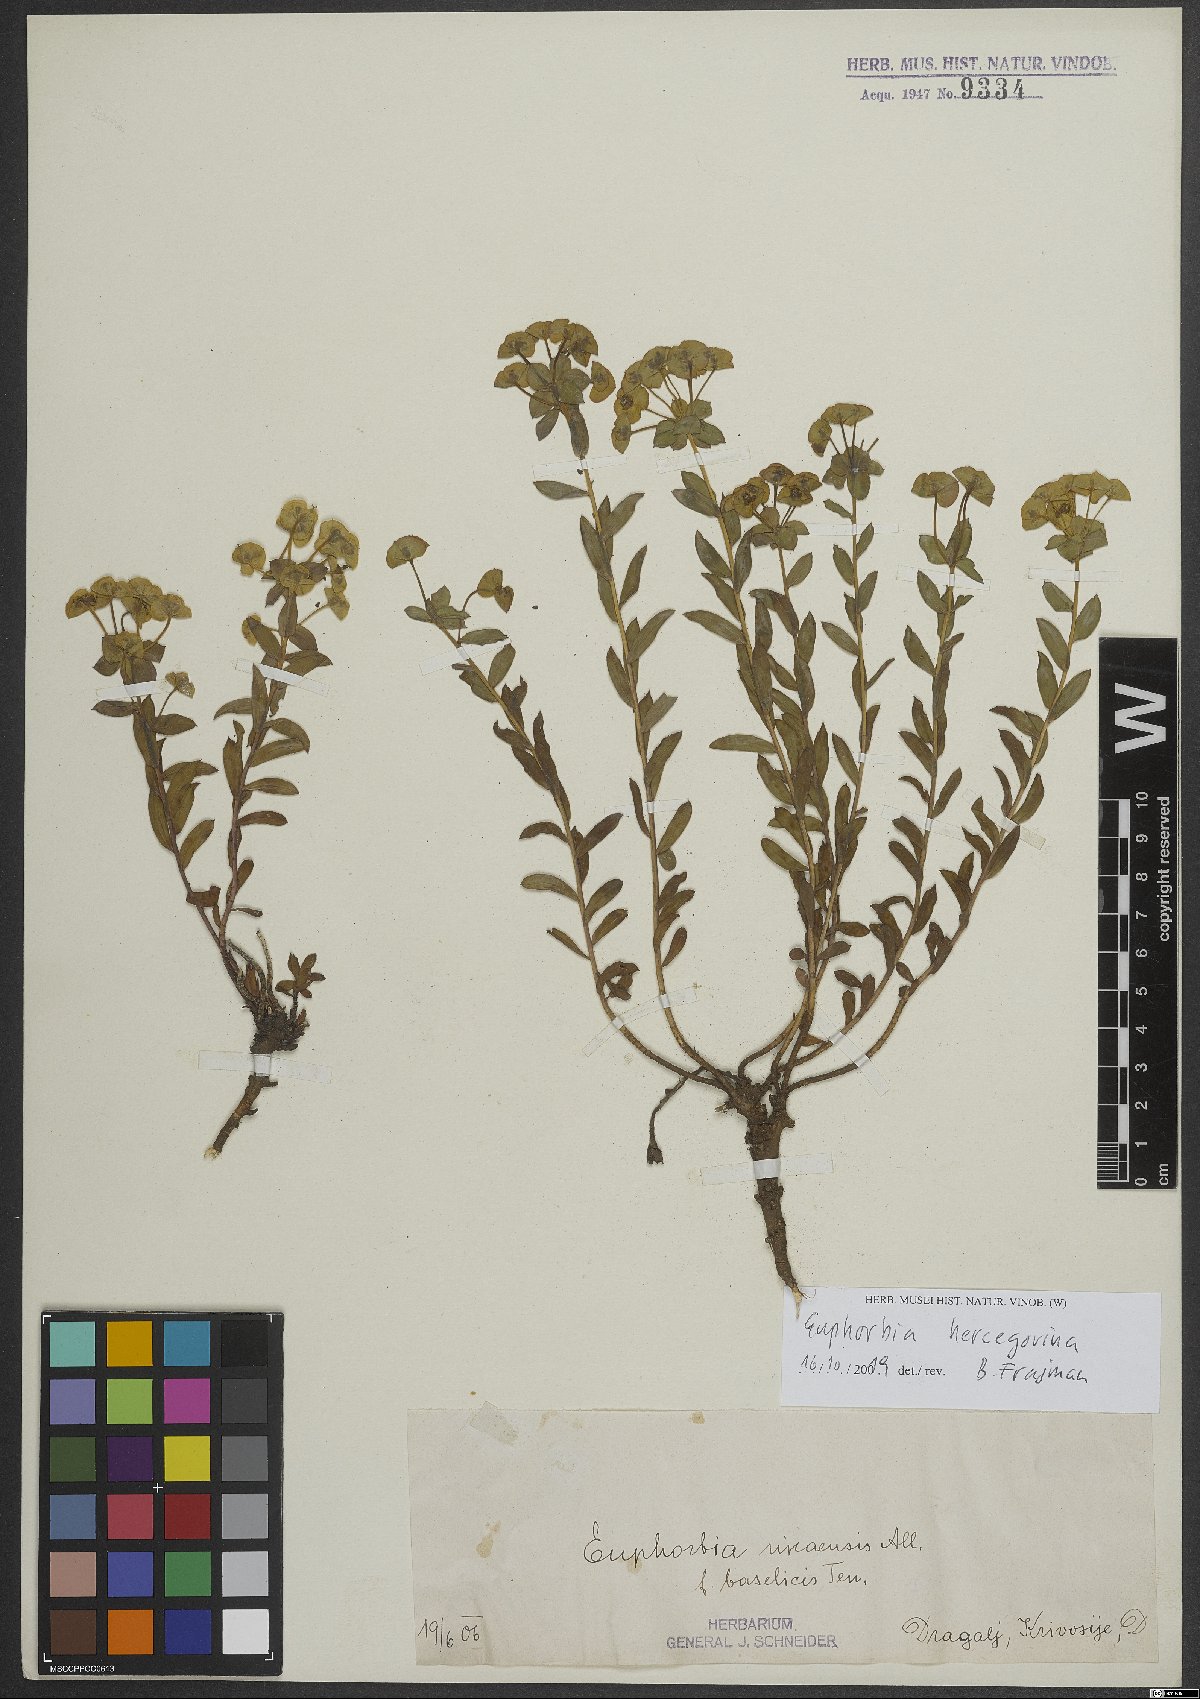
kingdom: Plantae
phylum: Tracheophyta
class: Magnoliopsida
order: Malpighiales
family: Euphorbiaceae
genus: Euphorbia
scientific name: Euphorbia barrelieri
